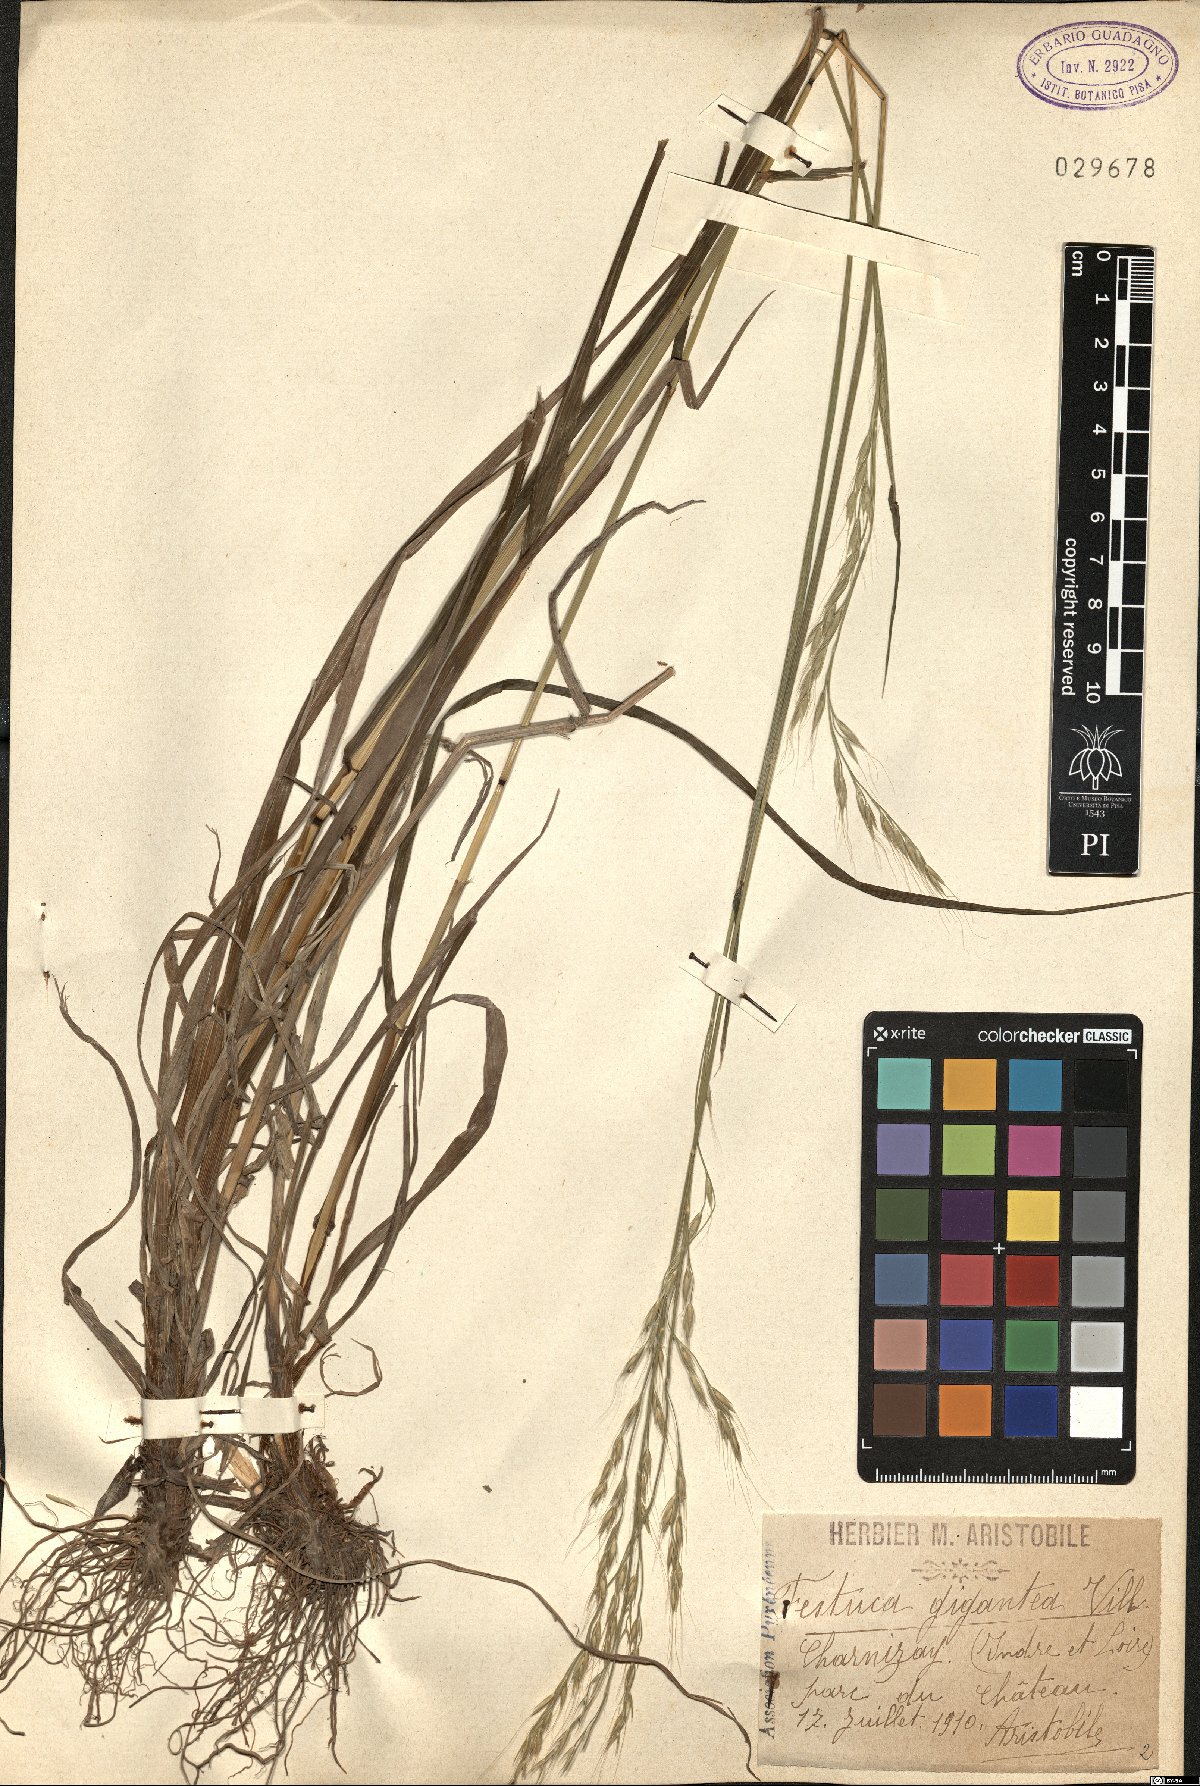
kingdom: Plantae
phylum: Tracheophyta
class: Liliopsida
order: Poales
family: Poaceae
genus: Lolium
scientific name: Lolium giganteum
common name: Giant fescue
